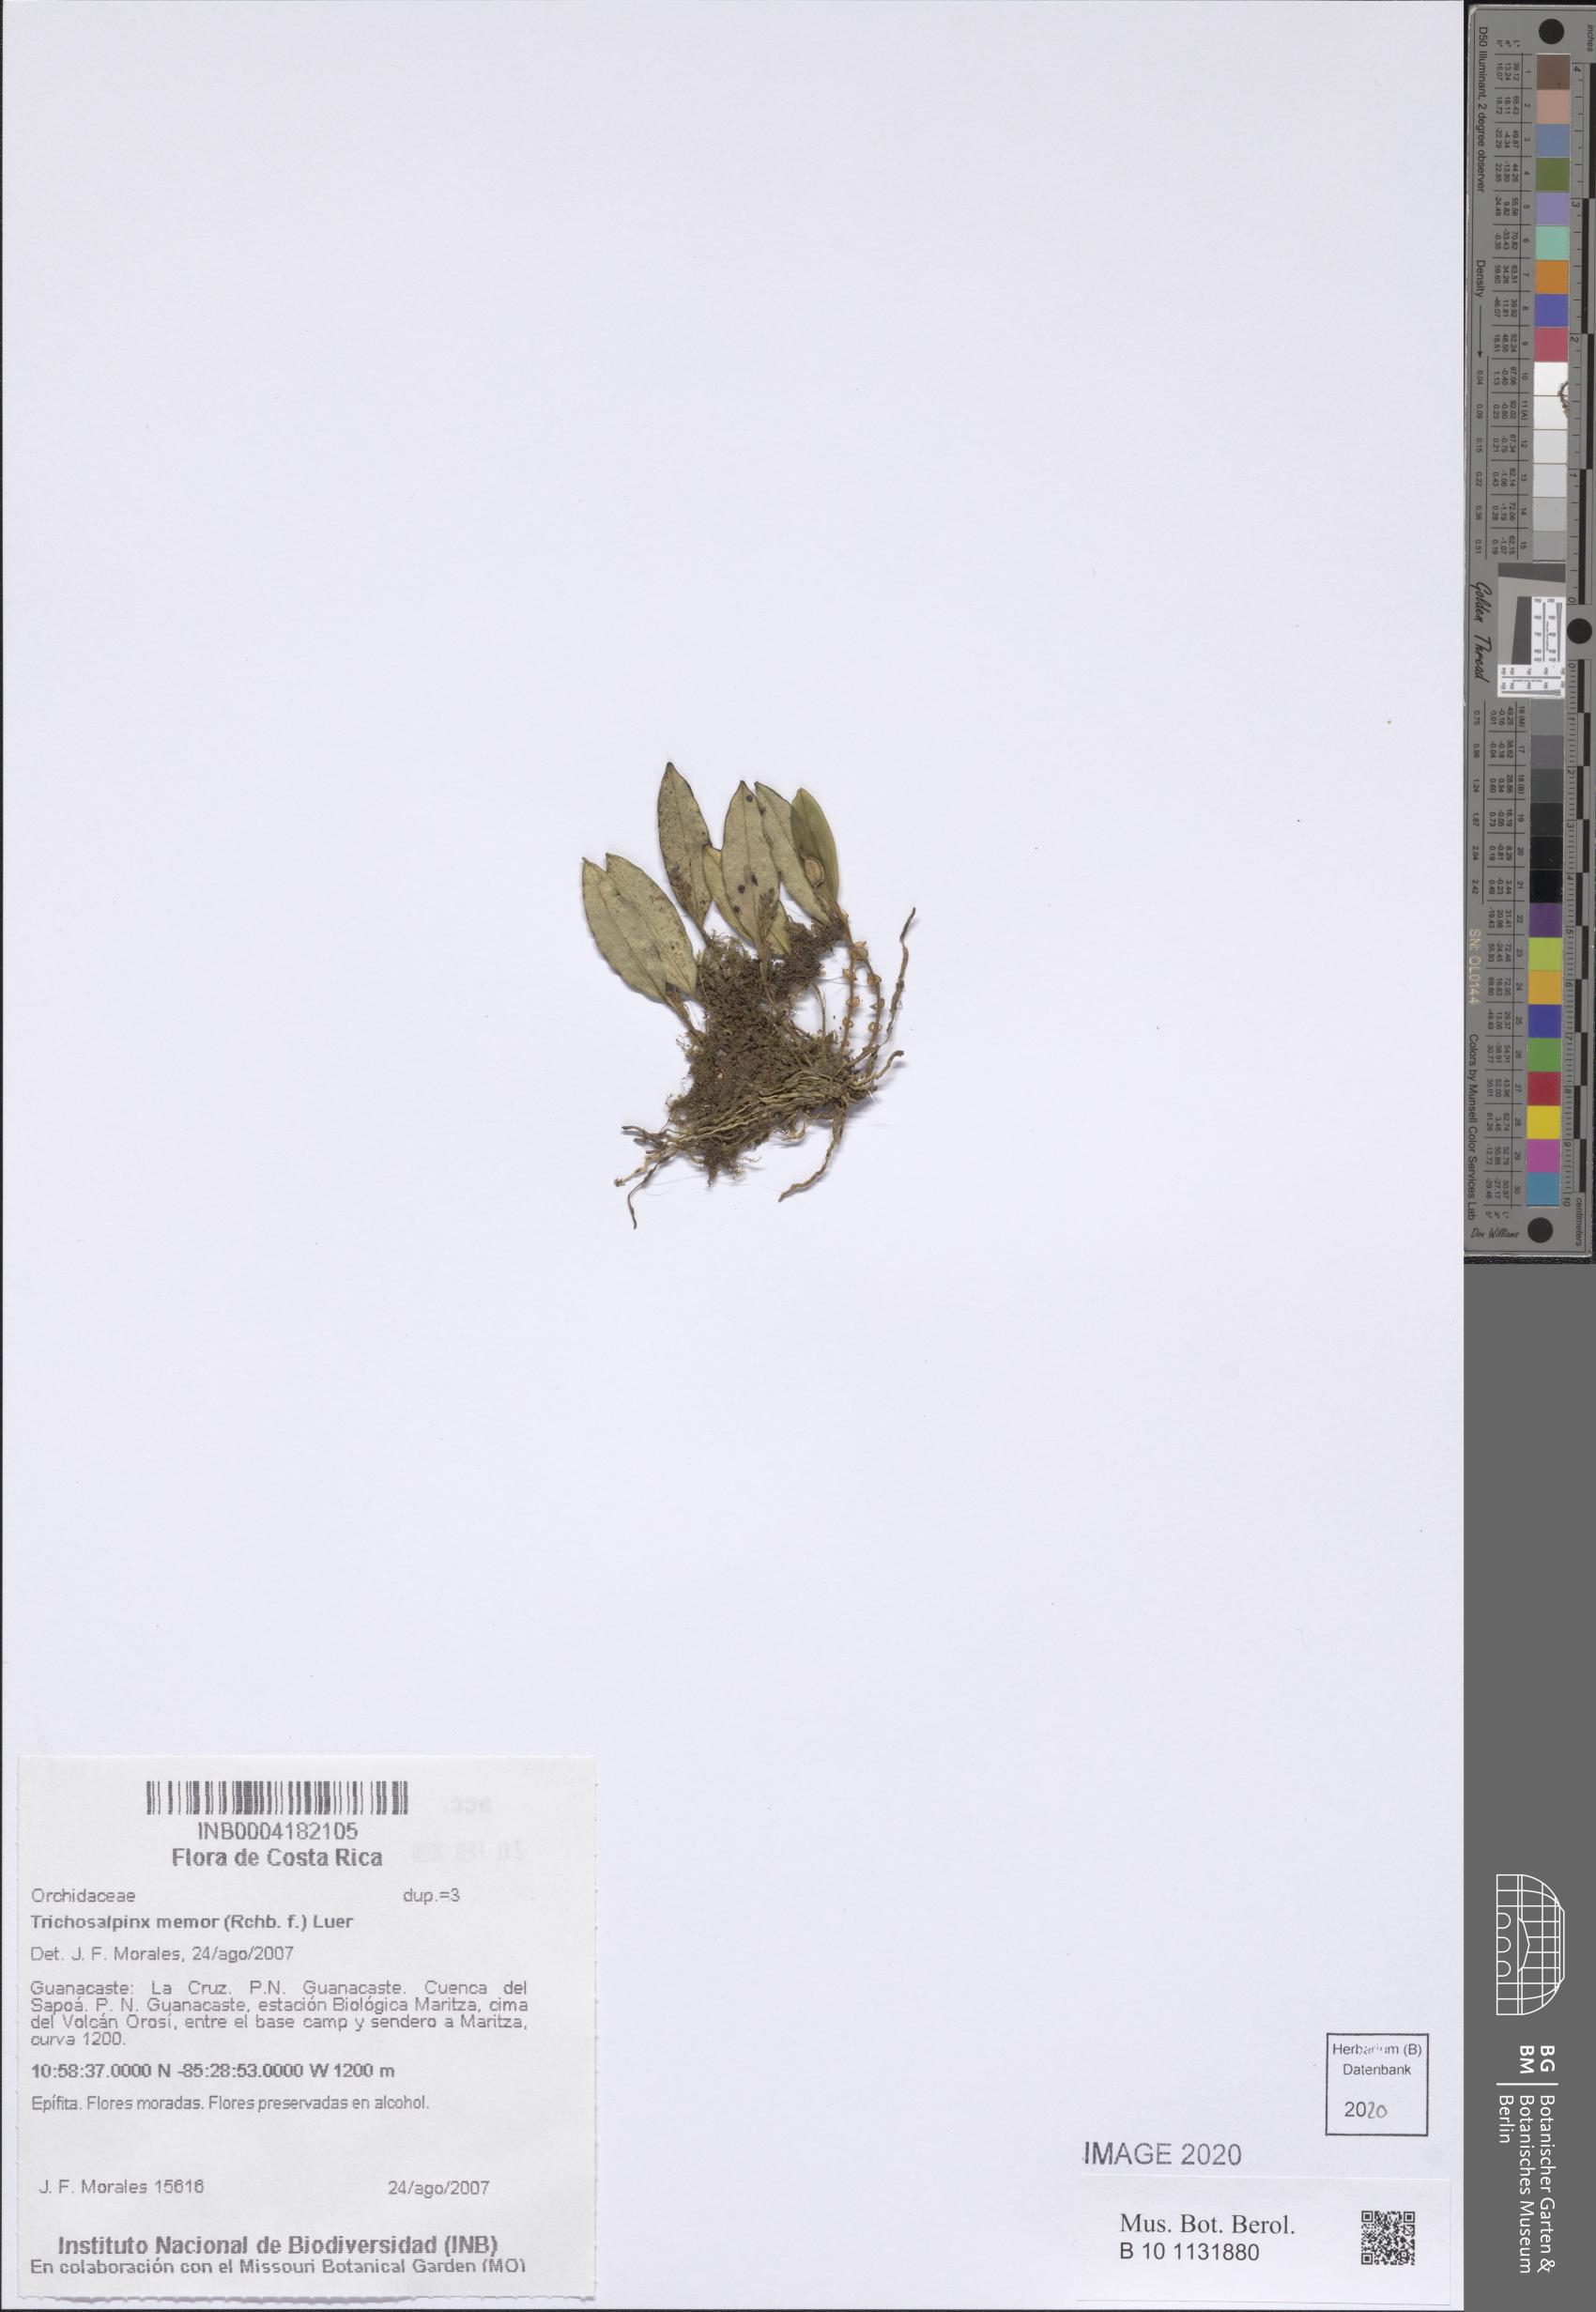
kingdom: Plantae
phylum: Tracheophyta
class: Liliopsida
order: Asparagales
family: Orchidaceae
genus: Trichosalpinx
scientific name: Trichosalpinx memor
